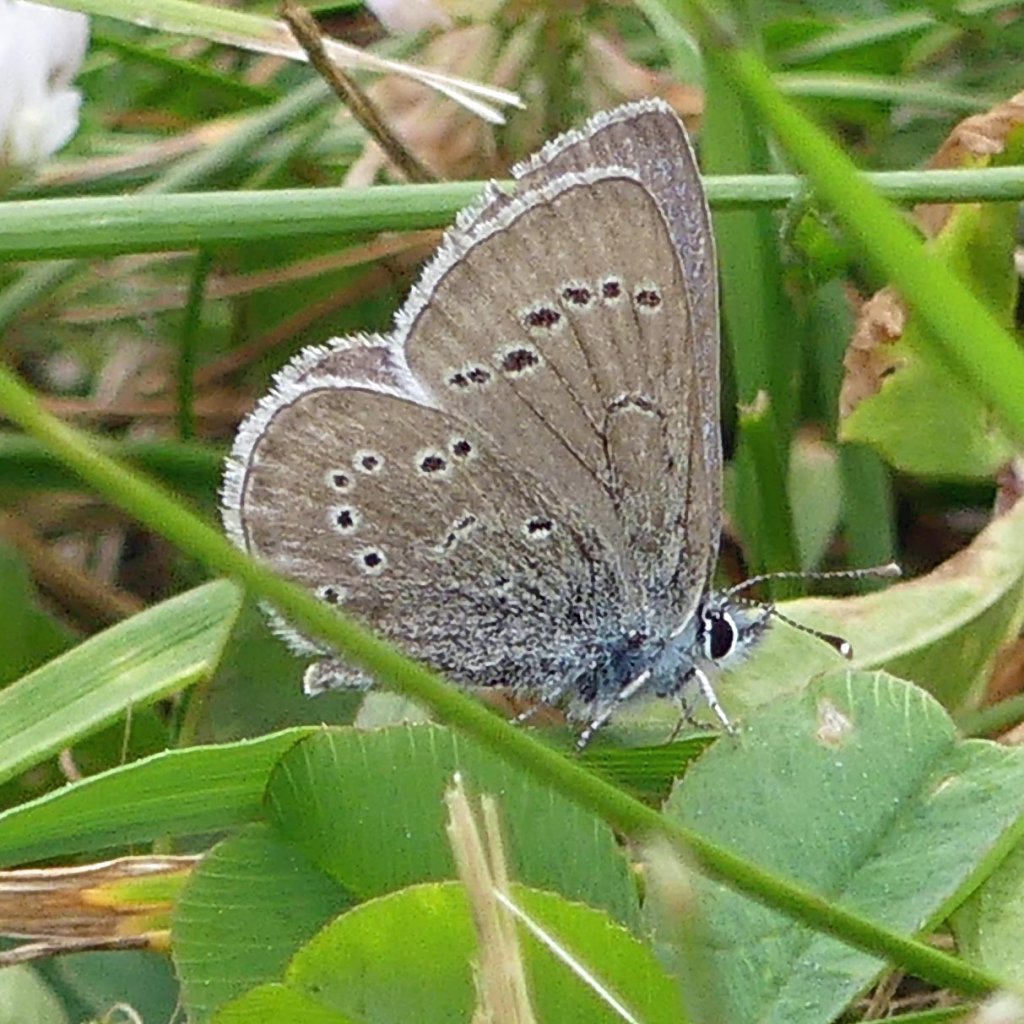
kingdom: Animalia
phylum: Arthropoda
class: Insecta
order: Lepidoptera
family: Lycaenidae
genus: Glaucopsyche
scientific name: Glaucopsyche lygdamus
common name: Silvery Blue
